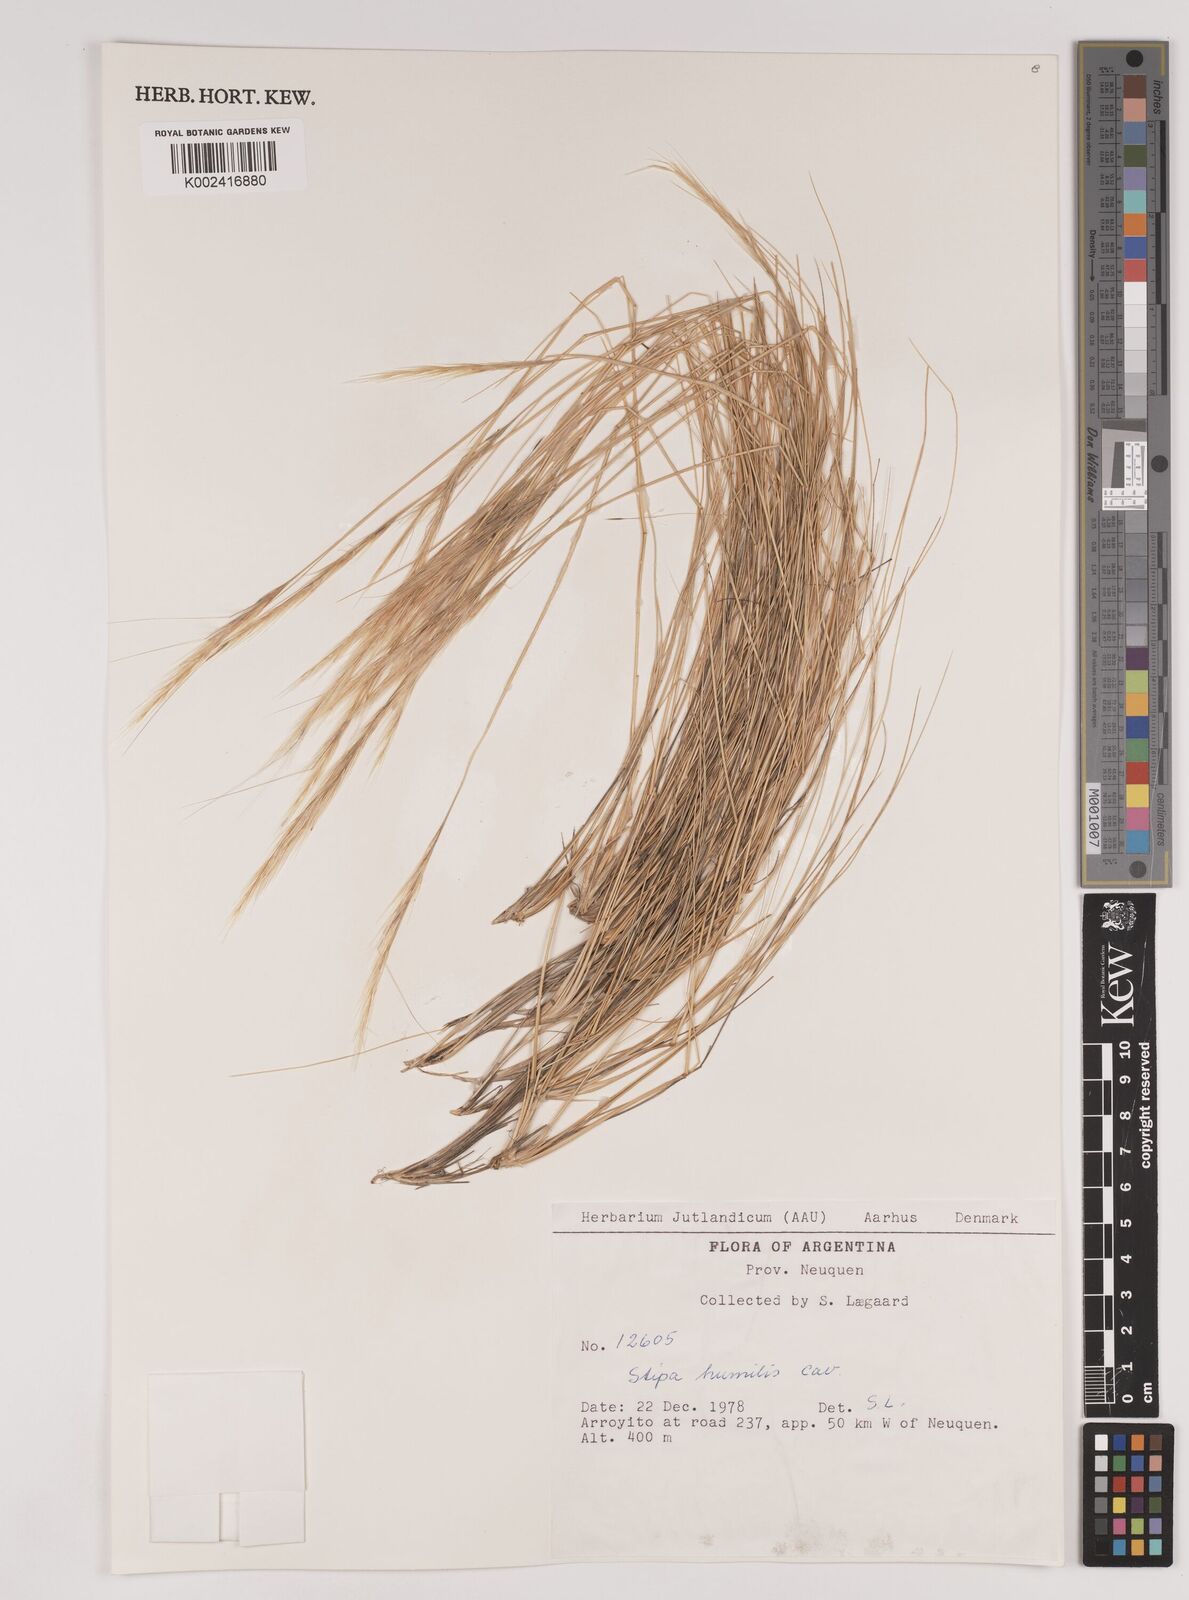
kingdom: Plantae
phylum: Tracheophyta
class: Liliopsida
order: Poales
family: Poaceae
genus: Pappostipa
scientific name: Pappostipa humilis
